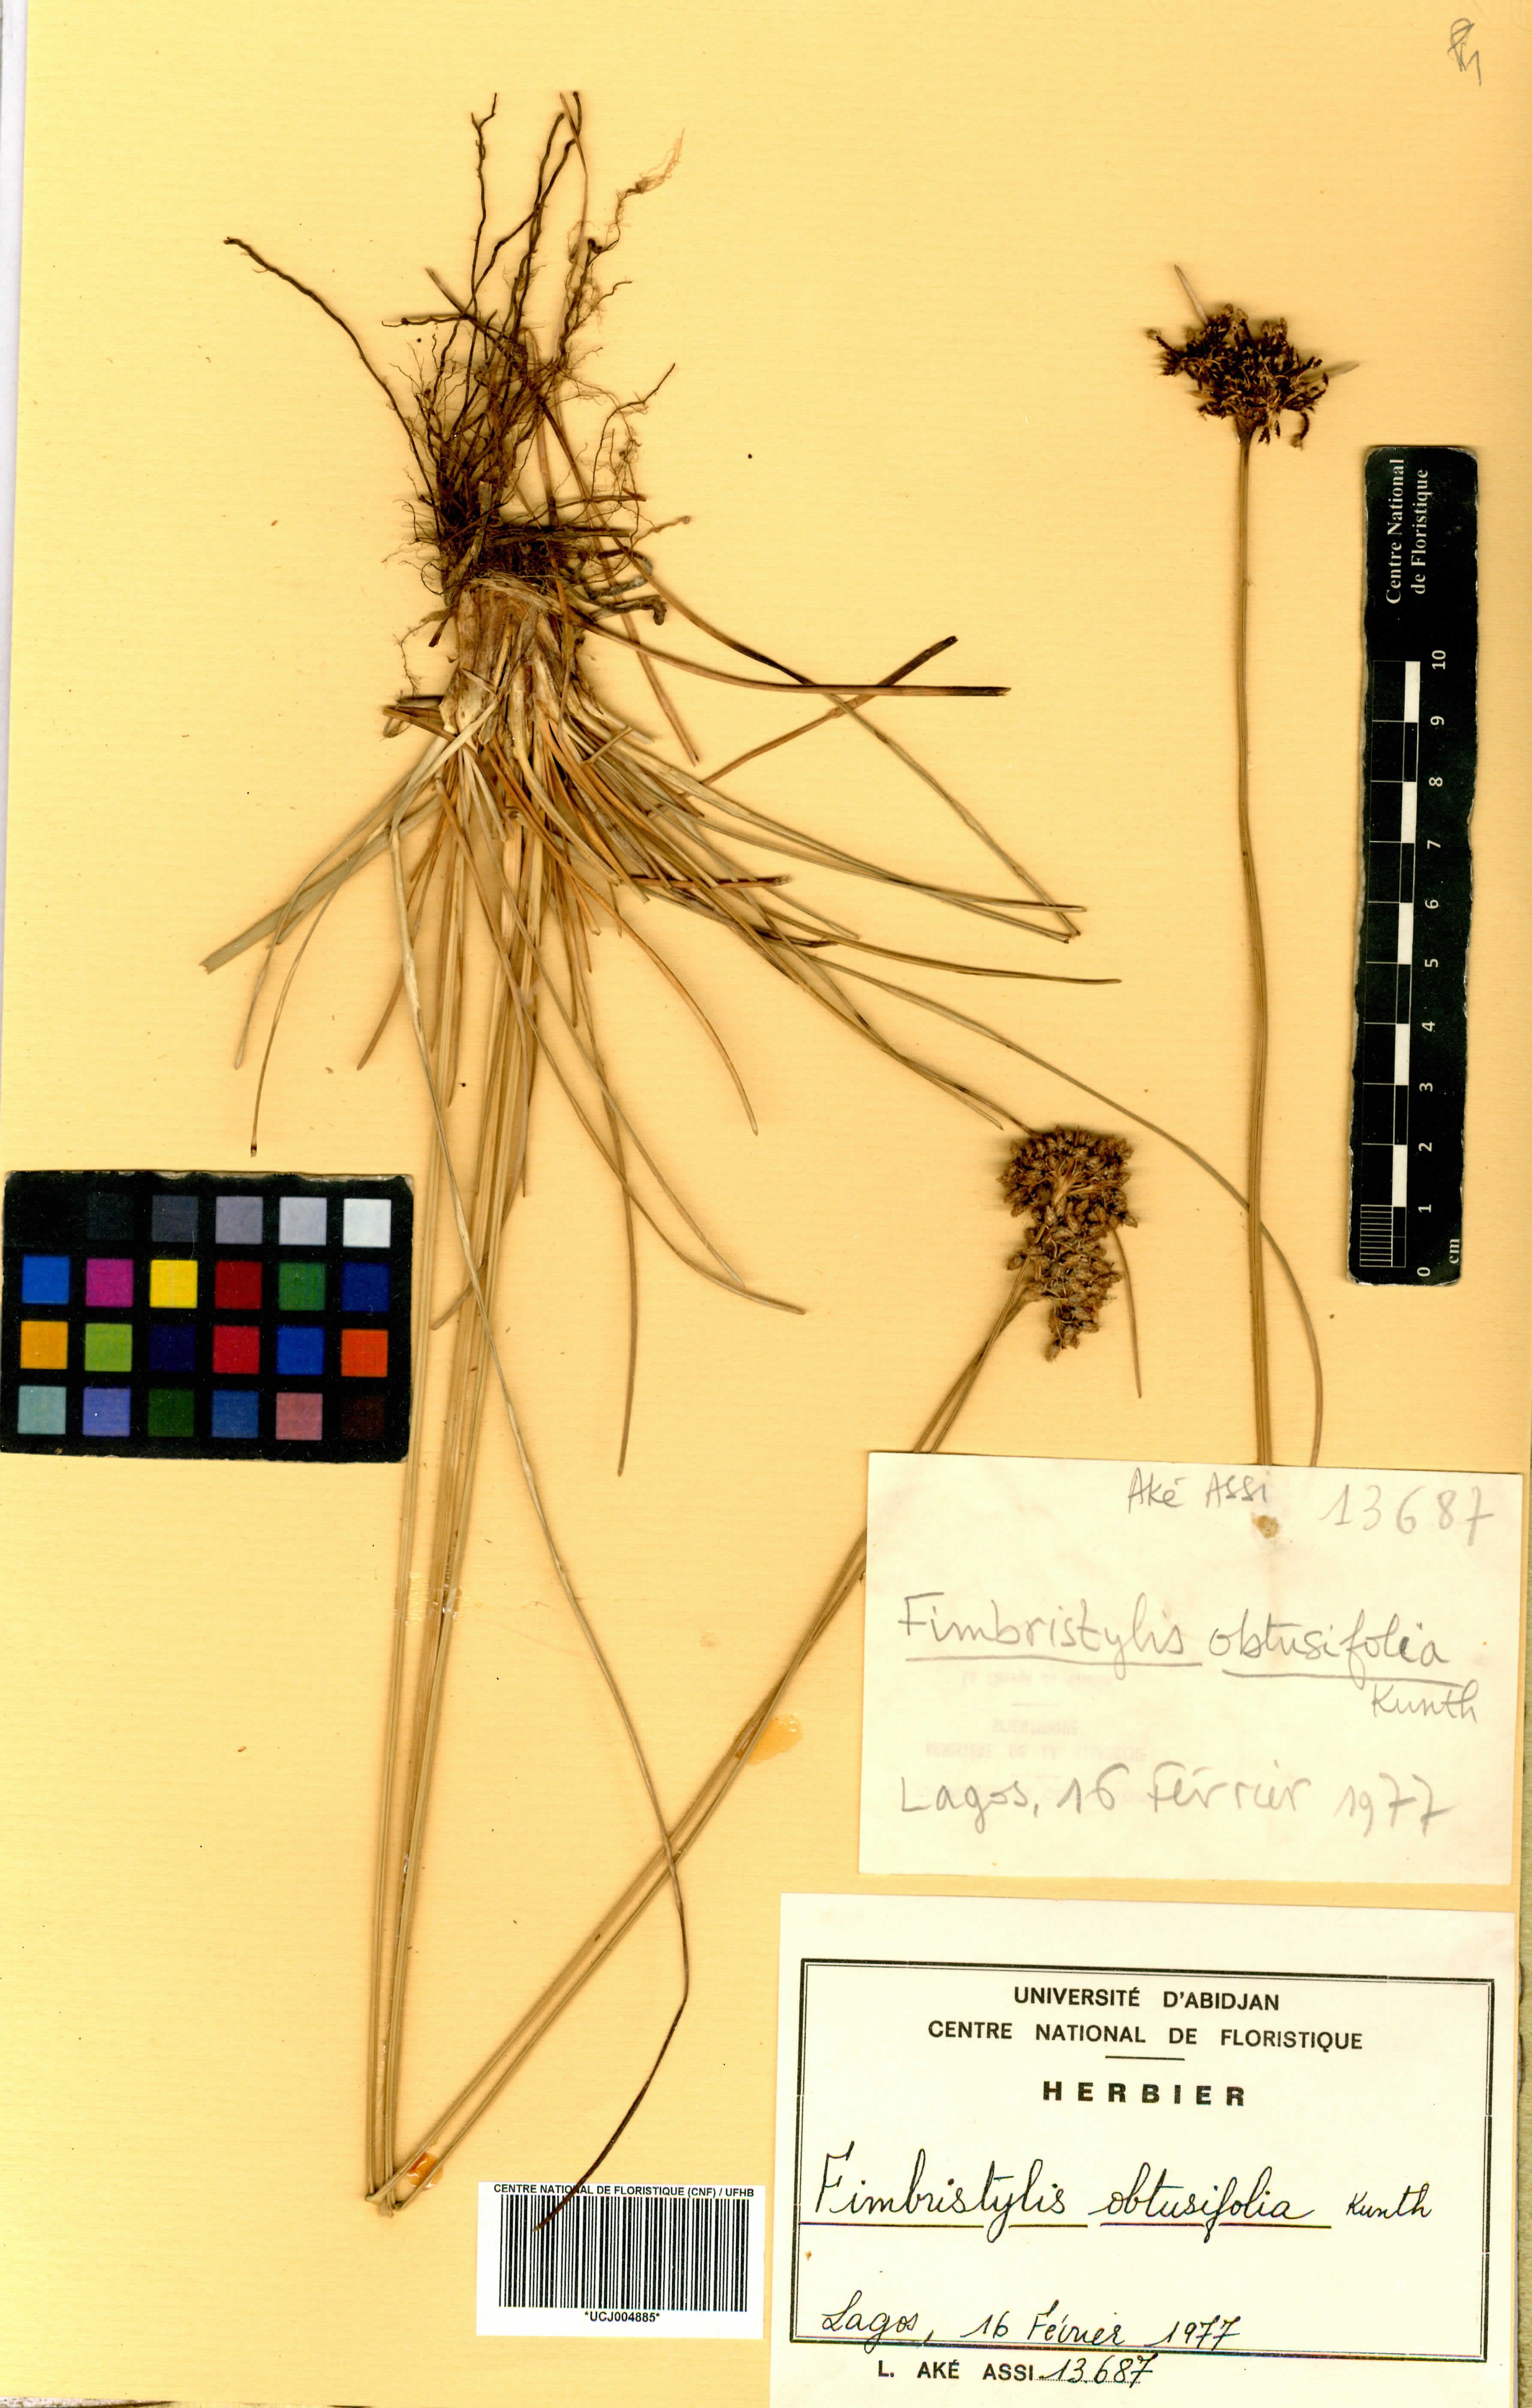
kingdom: Plantae
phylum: Tracheophyta
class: Liliopsida
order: Poales
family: Cyperaceae
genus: Fimbristylis
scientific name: Fimbristylis cymosa
